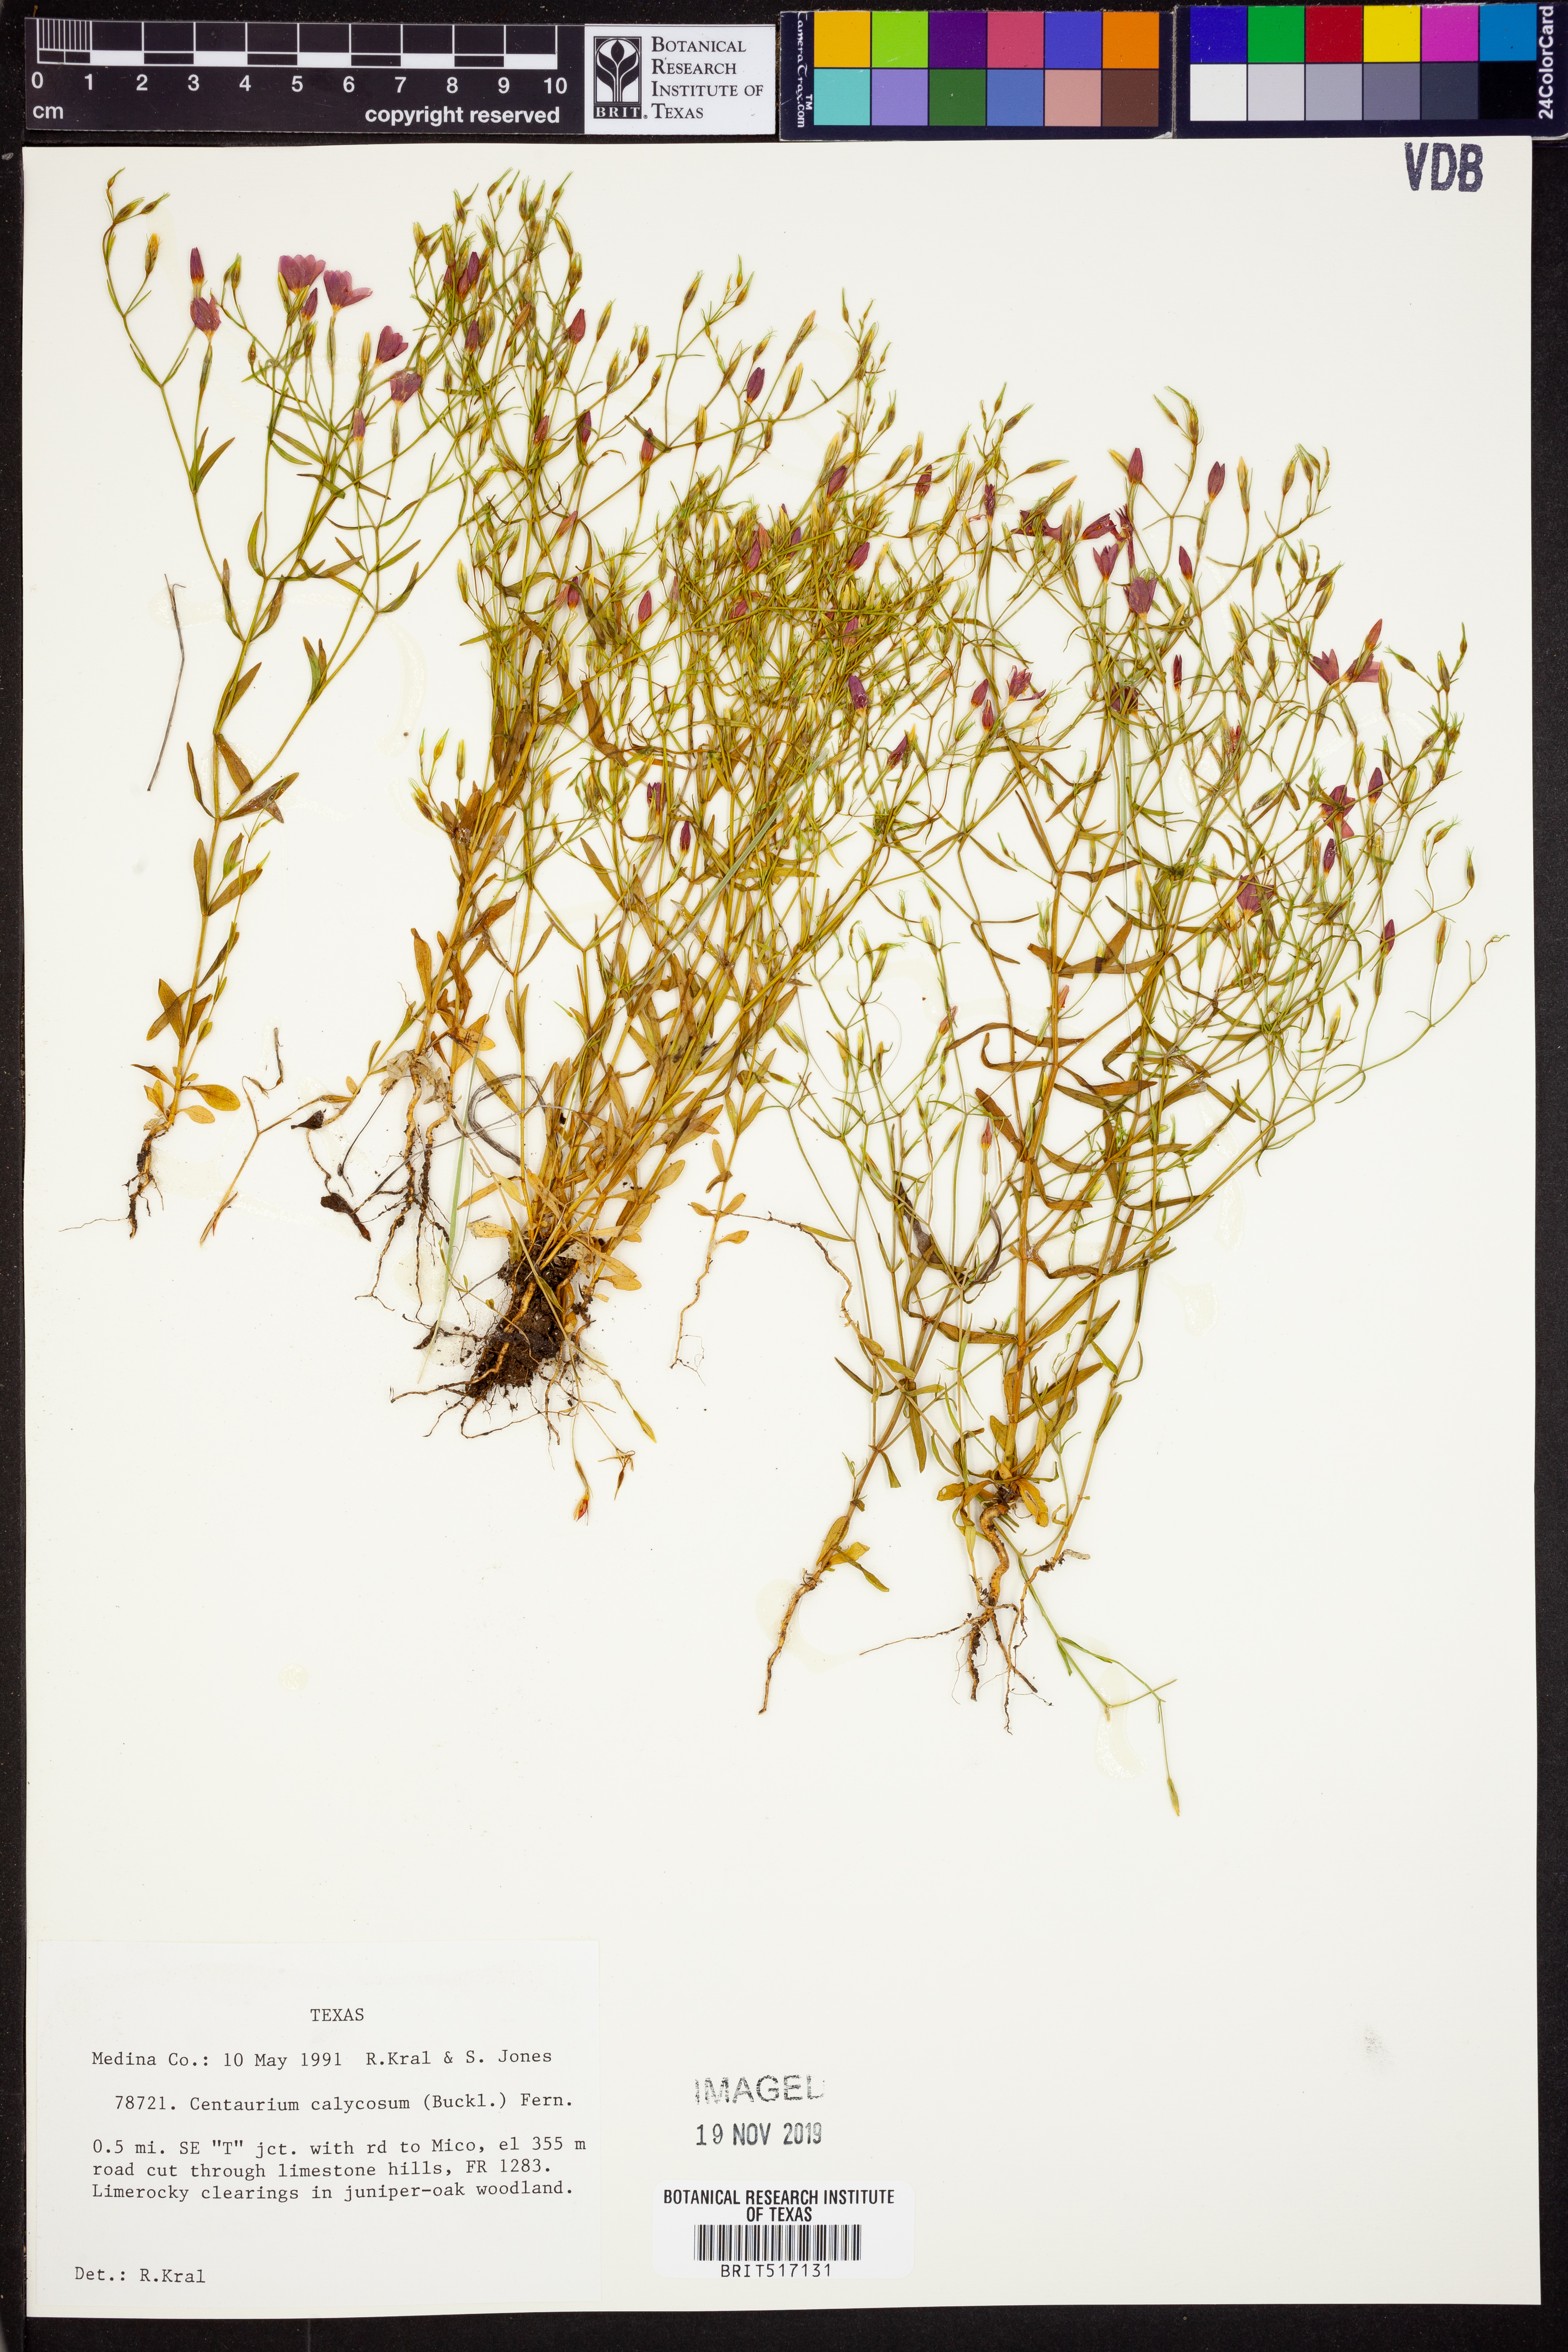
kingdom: Plantae
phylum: Tracheophyta
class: Magnoliopsida
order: Gentianales
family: Gentianaceae
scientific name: Gentianaceae
